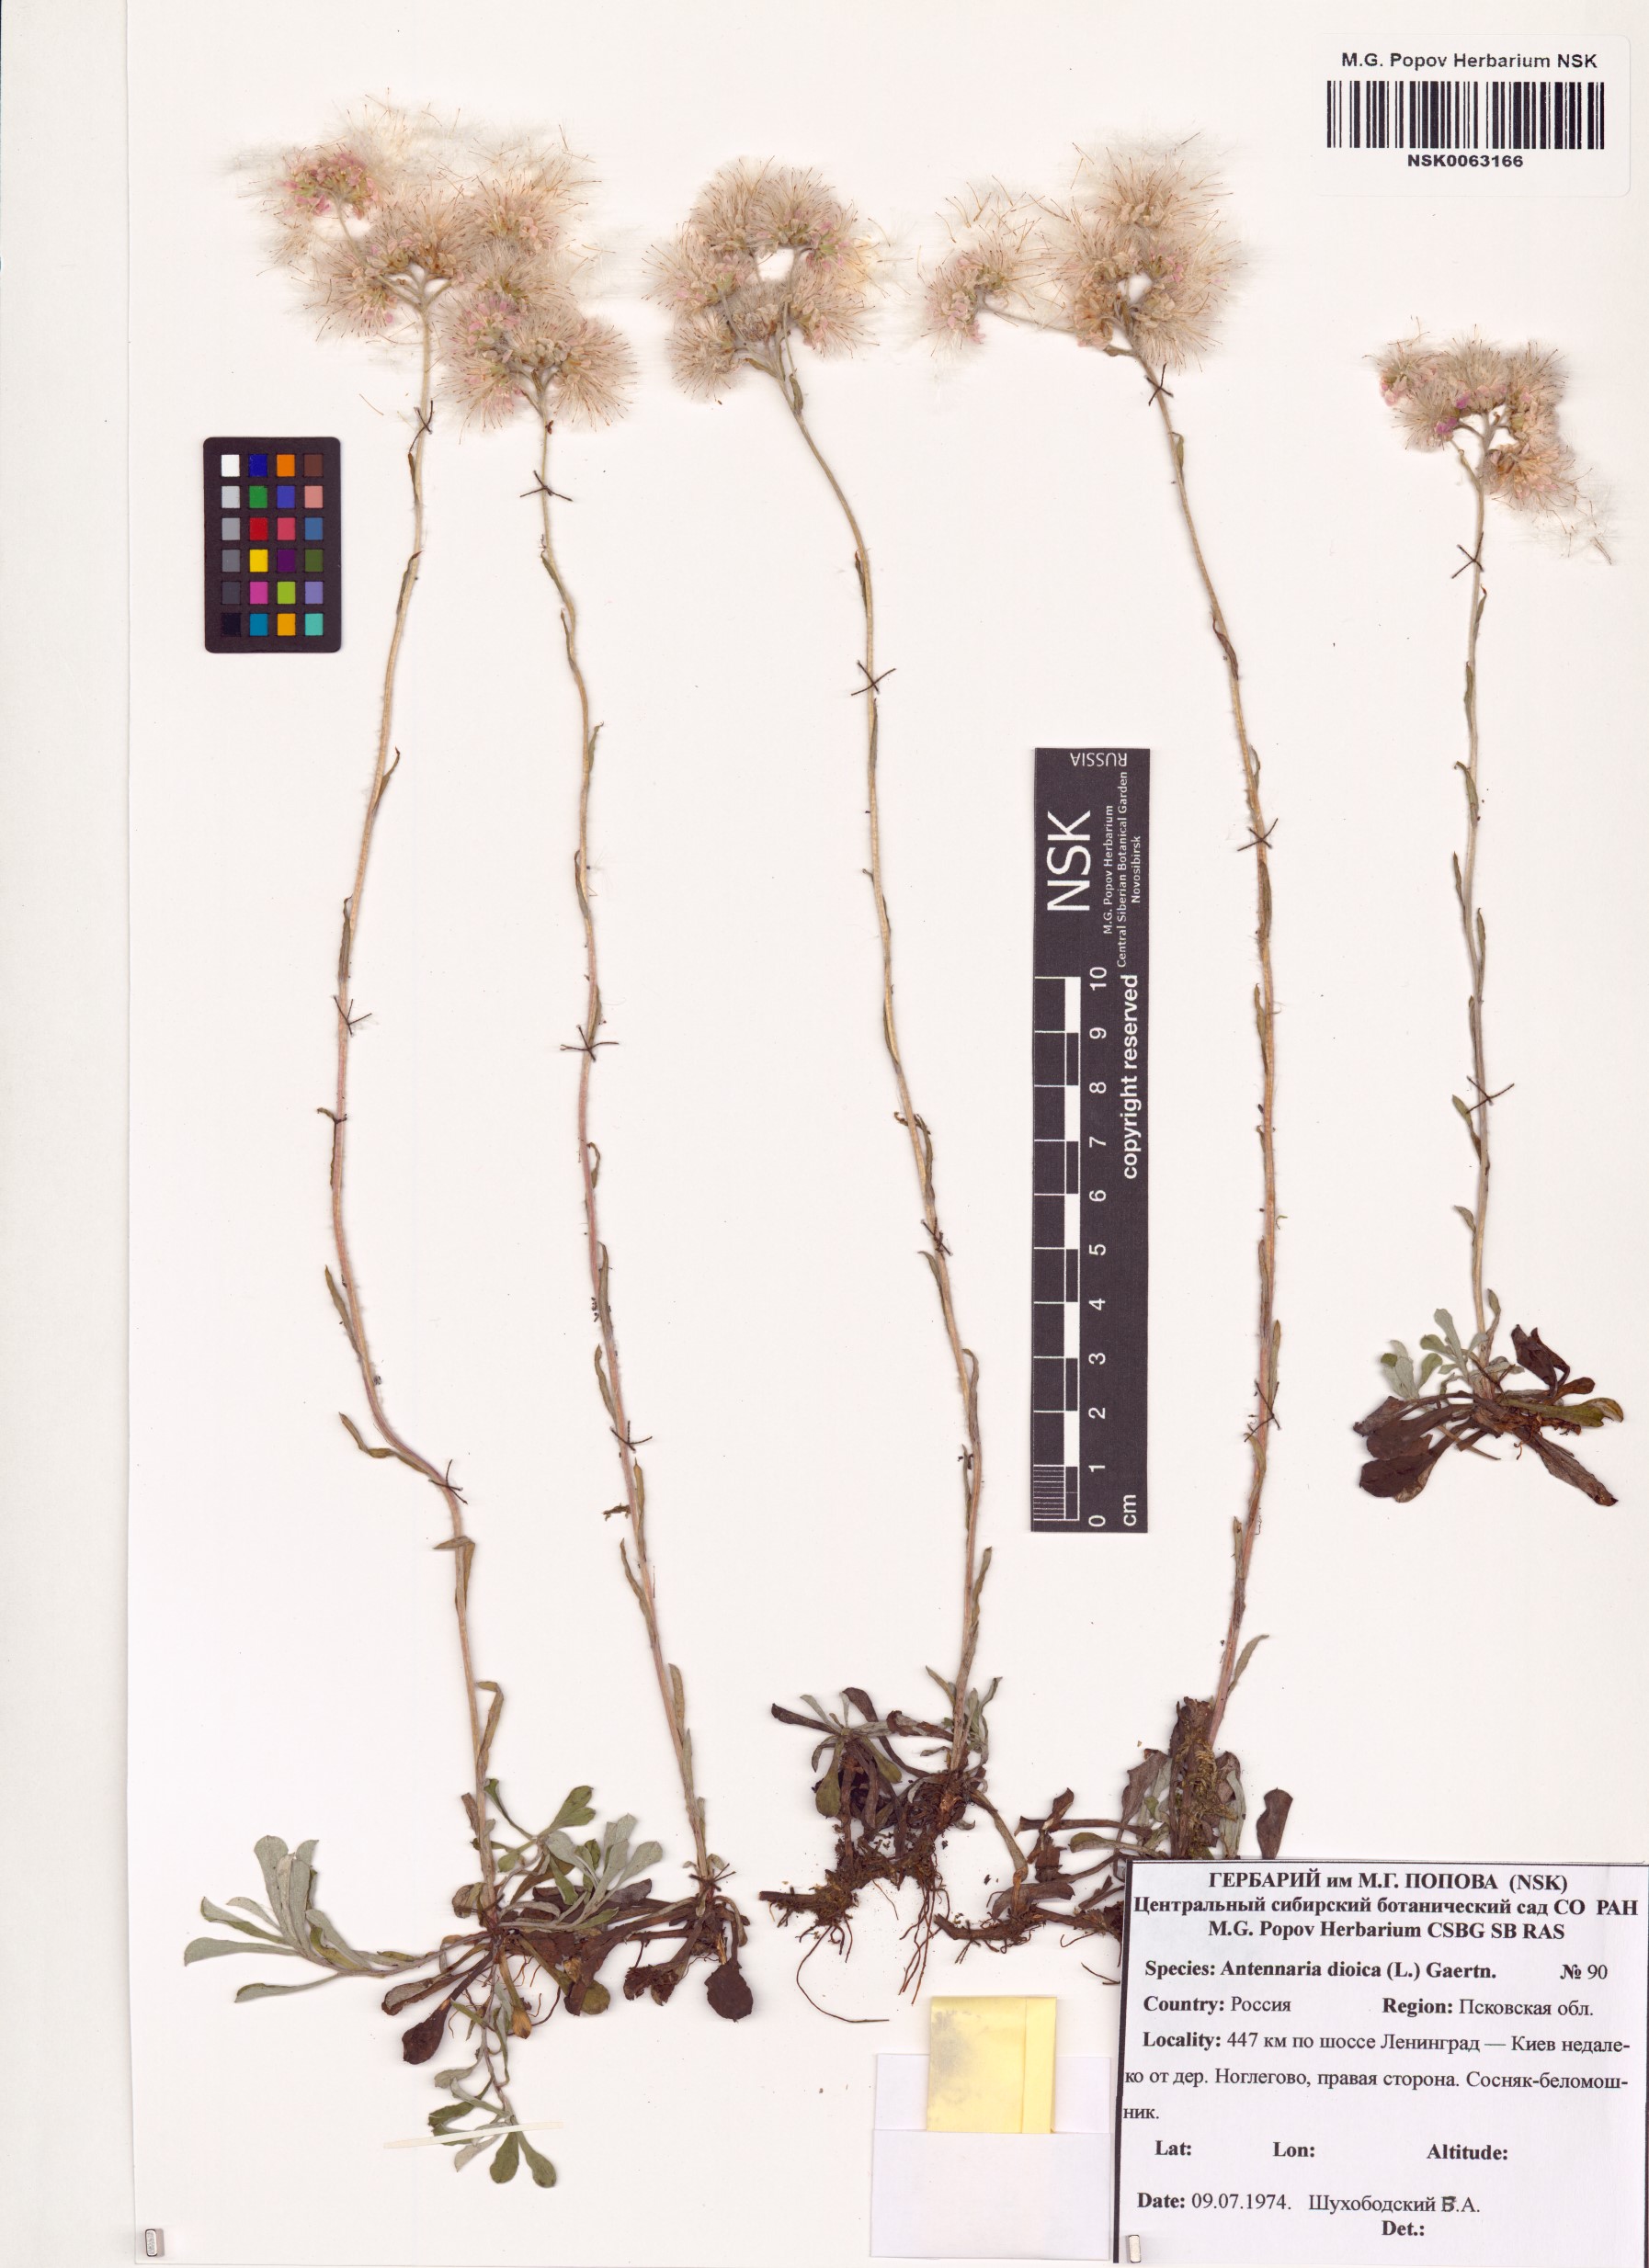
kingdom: Plantae
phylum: Tracheophyta
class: Magnoliopsida
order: Asterales
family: Asteraceae
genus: Antennaria
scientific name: Antennaria dioica
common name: Mountain everlasting
